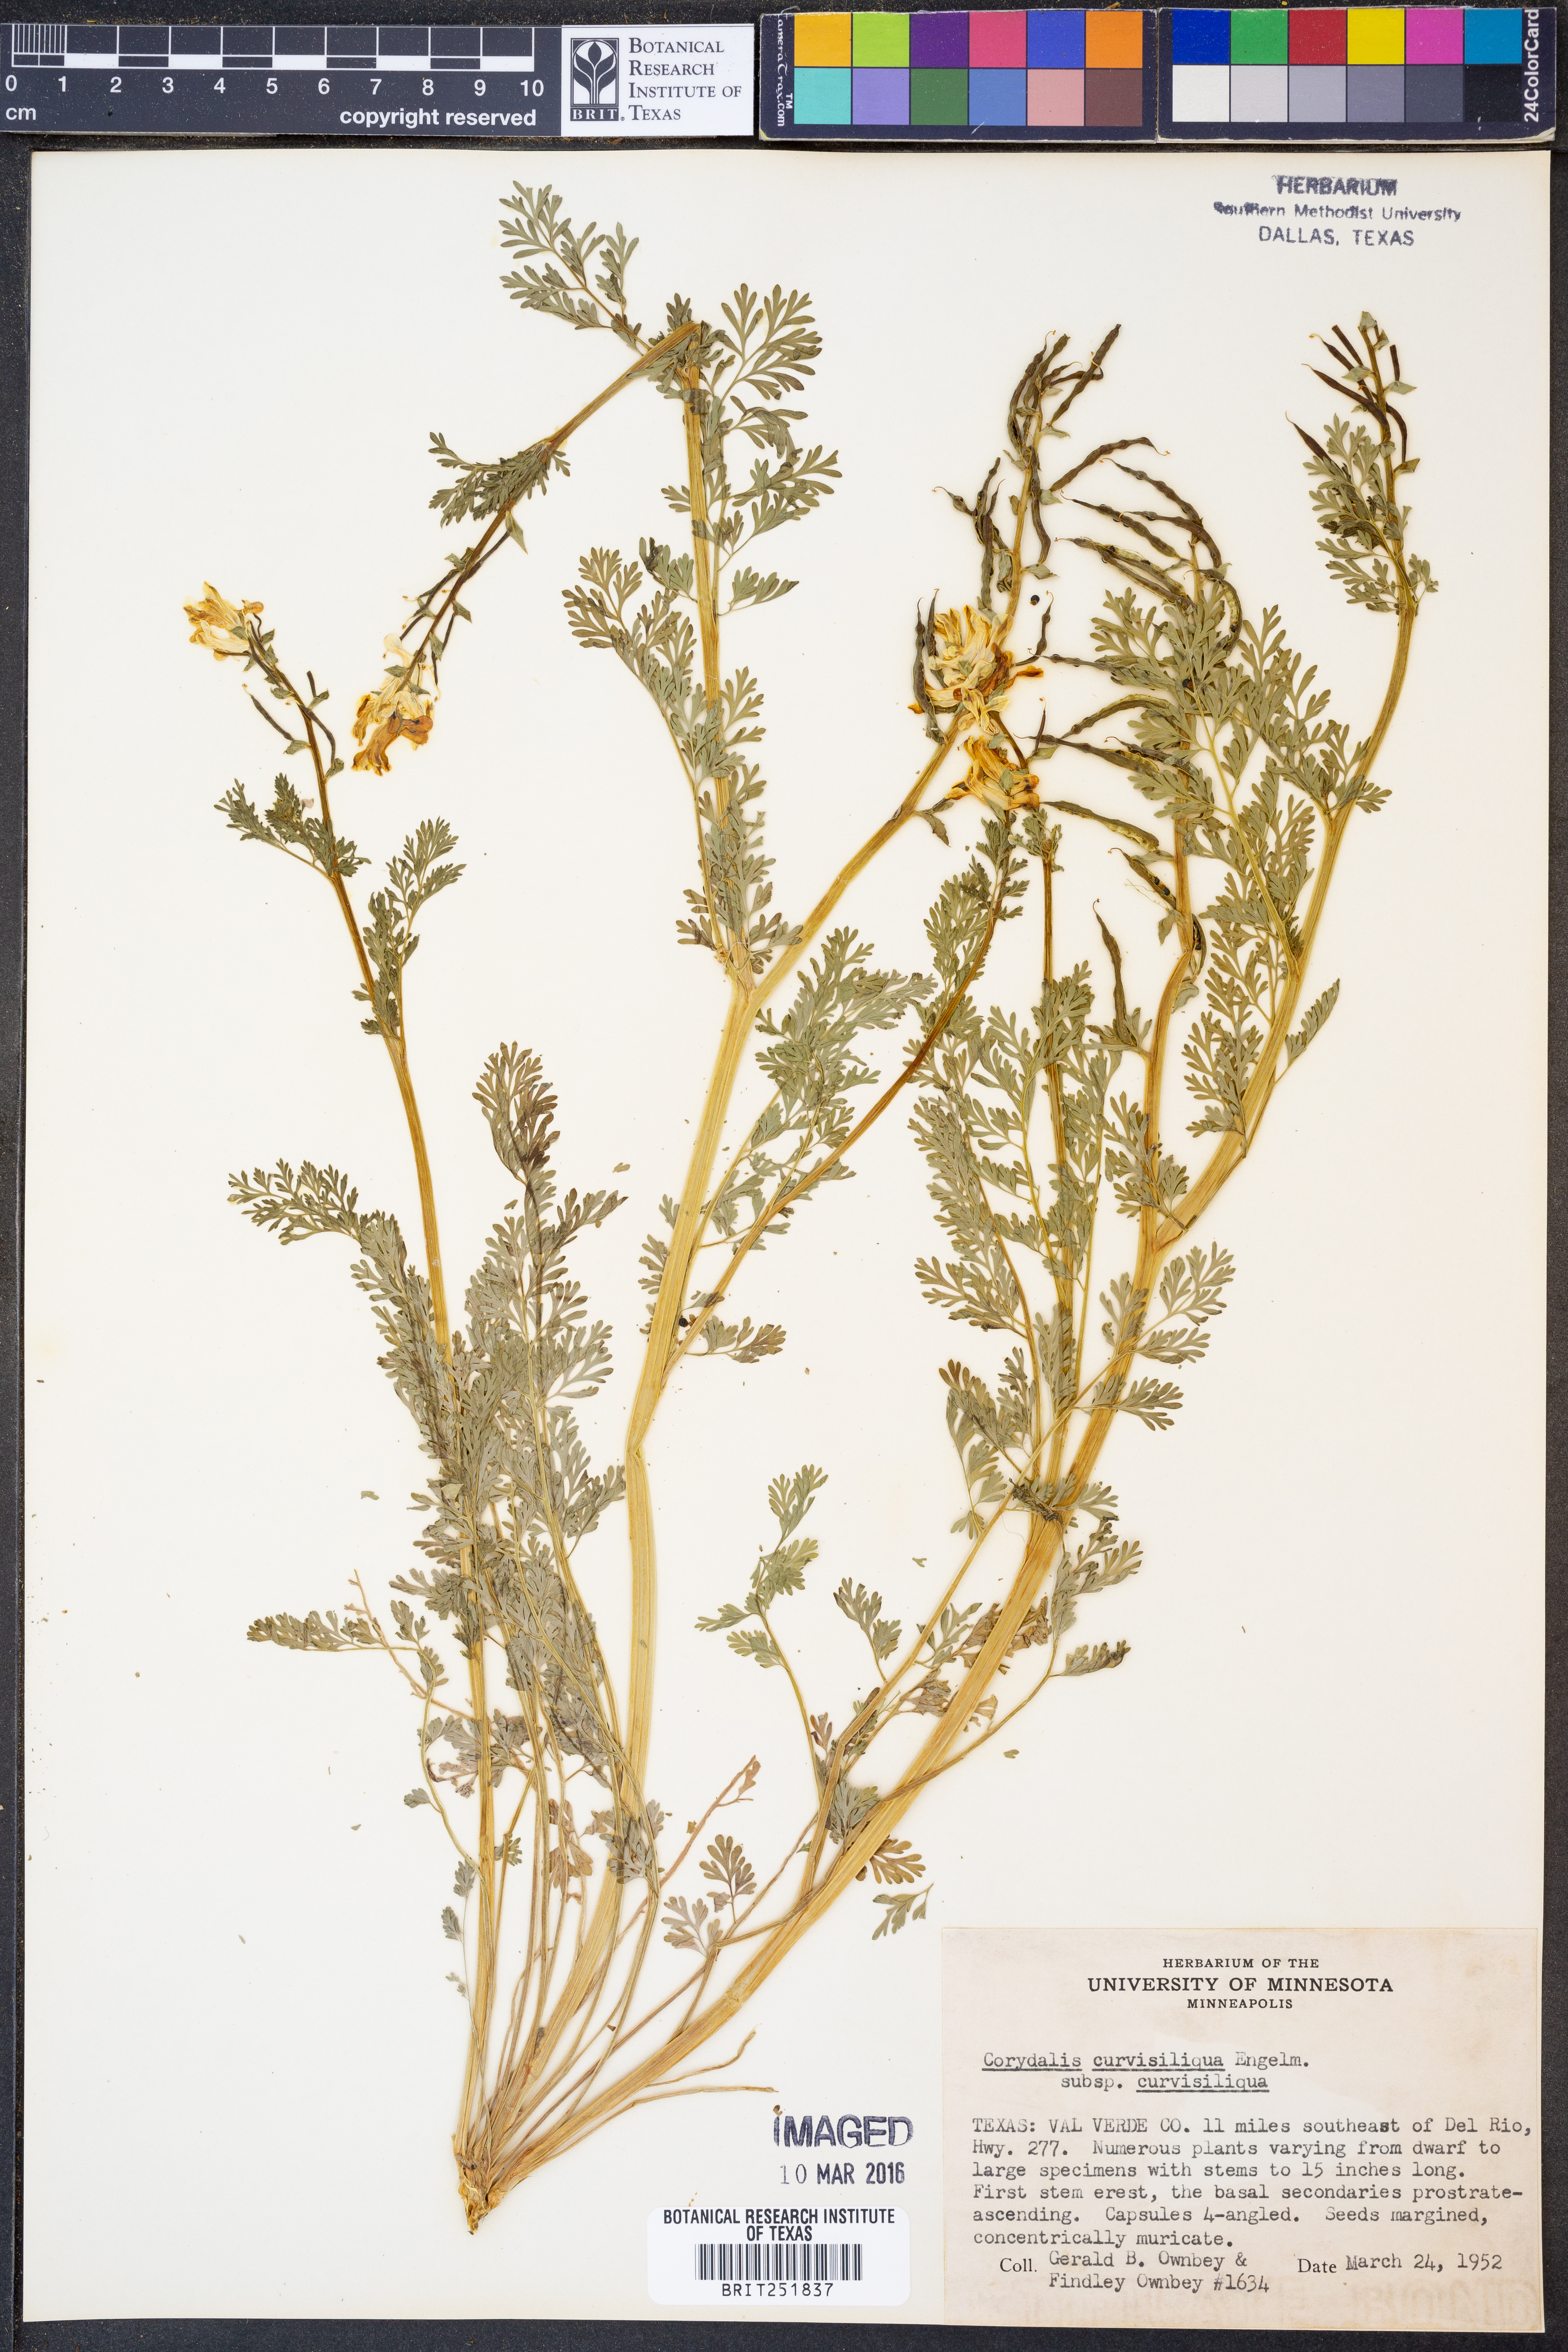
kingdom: Plantae
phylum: Tracheophyta
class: Magnoliopsida
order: Ranunculales
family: Papaveraceae
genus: Corydalis
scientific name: Corydalis curvisiliqua
